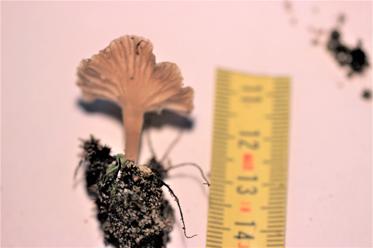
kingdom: Fungi
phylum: Basidiomycota
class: Agaricomycetes
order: Agaricales
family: Hygrophoraceae
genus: Arrhenia
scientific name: Arrhenia
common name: fontænehat
